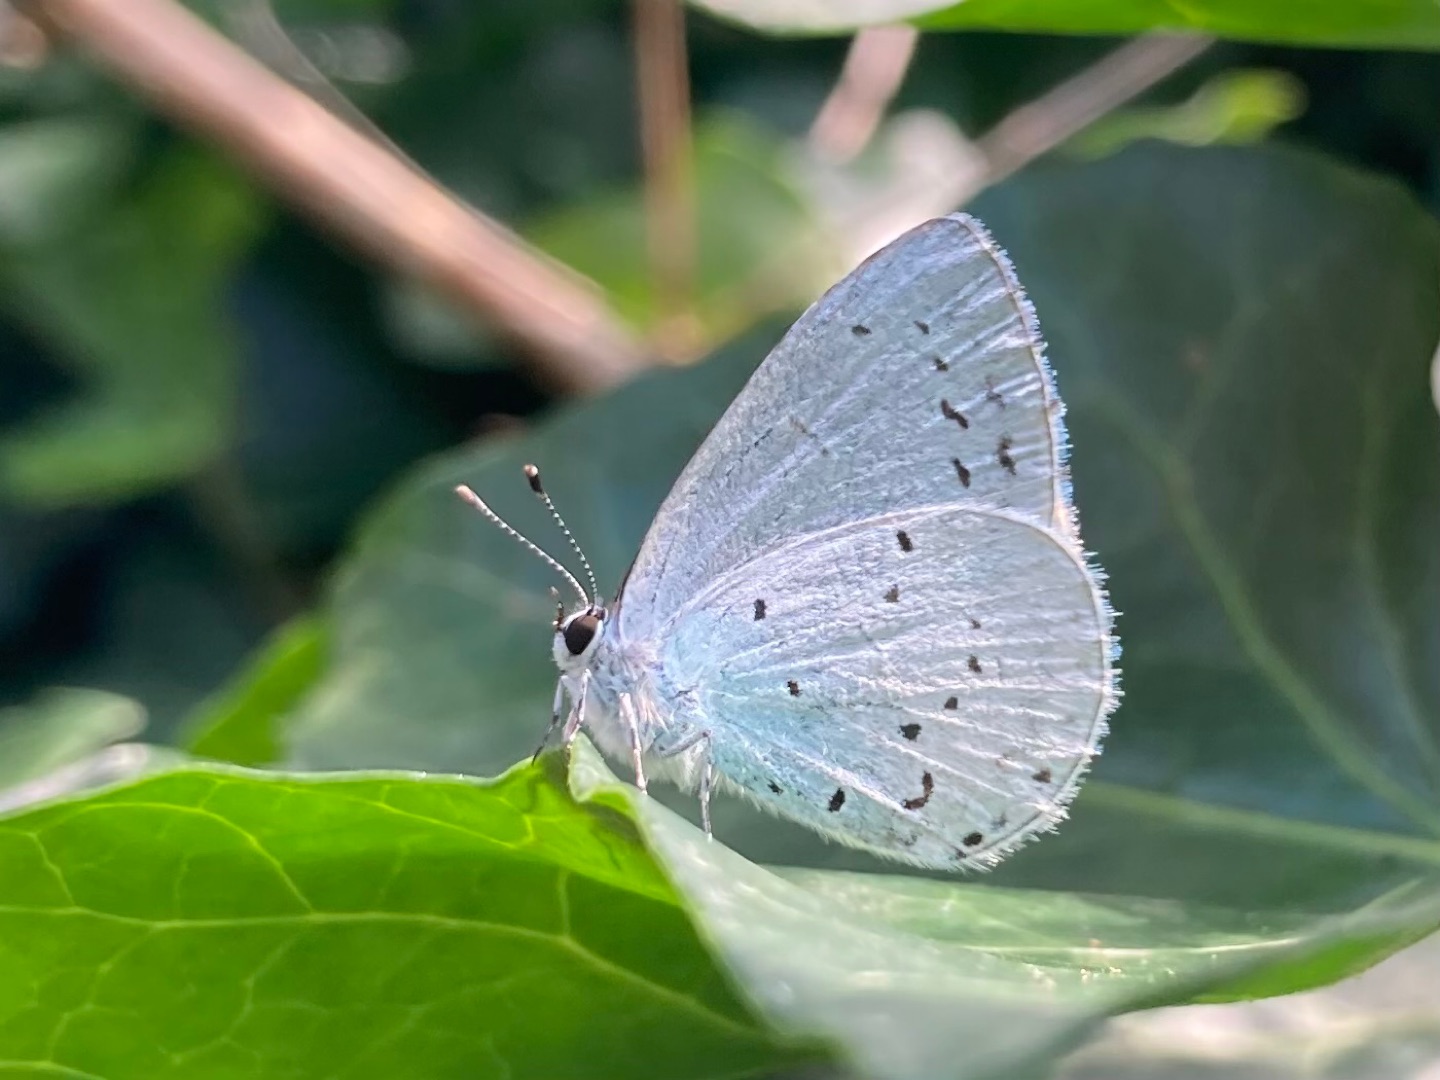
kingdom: Animalia
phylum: Arthropoda
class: Insecta
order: Lepidoptera
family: Lycaenidae
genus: Celastrina
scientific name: Celastrina argiolus
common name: Skovblåfugl
